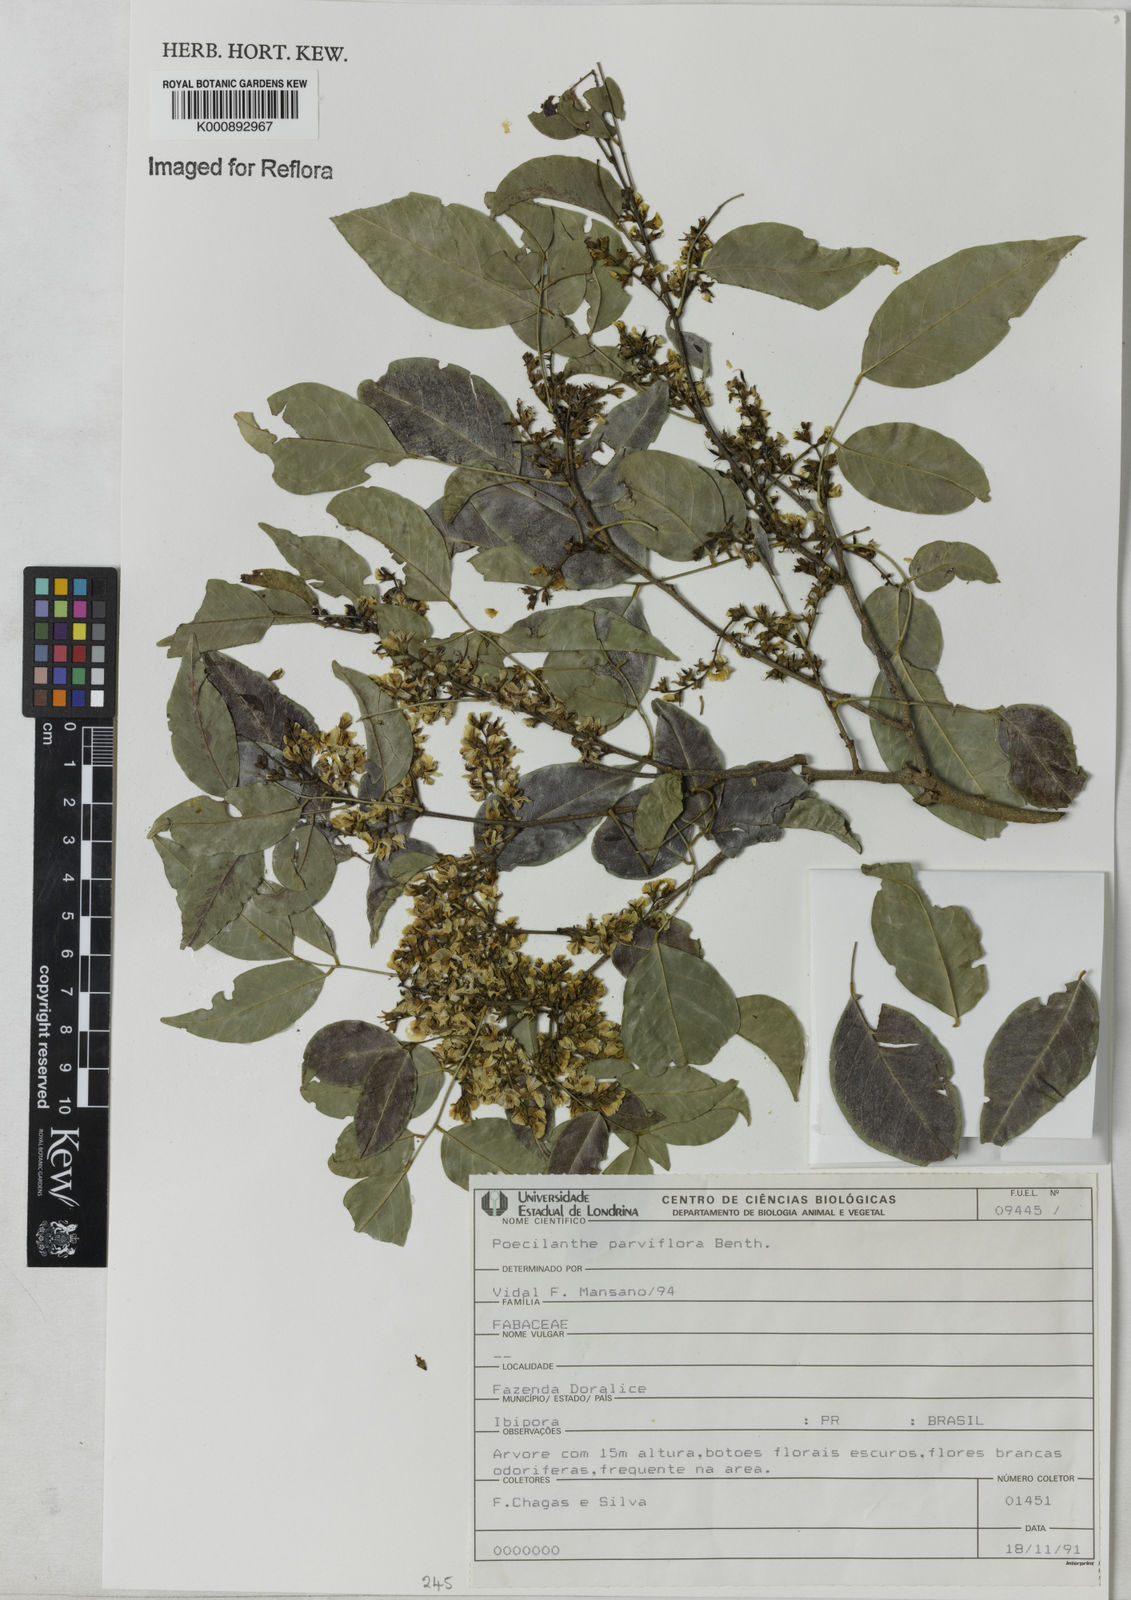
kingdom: Plantae
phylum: Tracheophyta
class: Magnoliopsida
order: Fabales
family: Fabaceae
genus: Poecilanthe
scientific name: Poecilanthe parviflora
